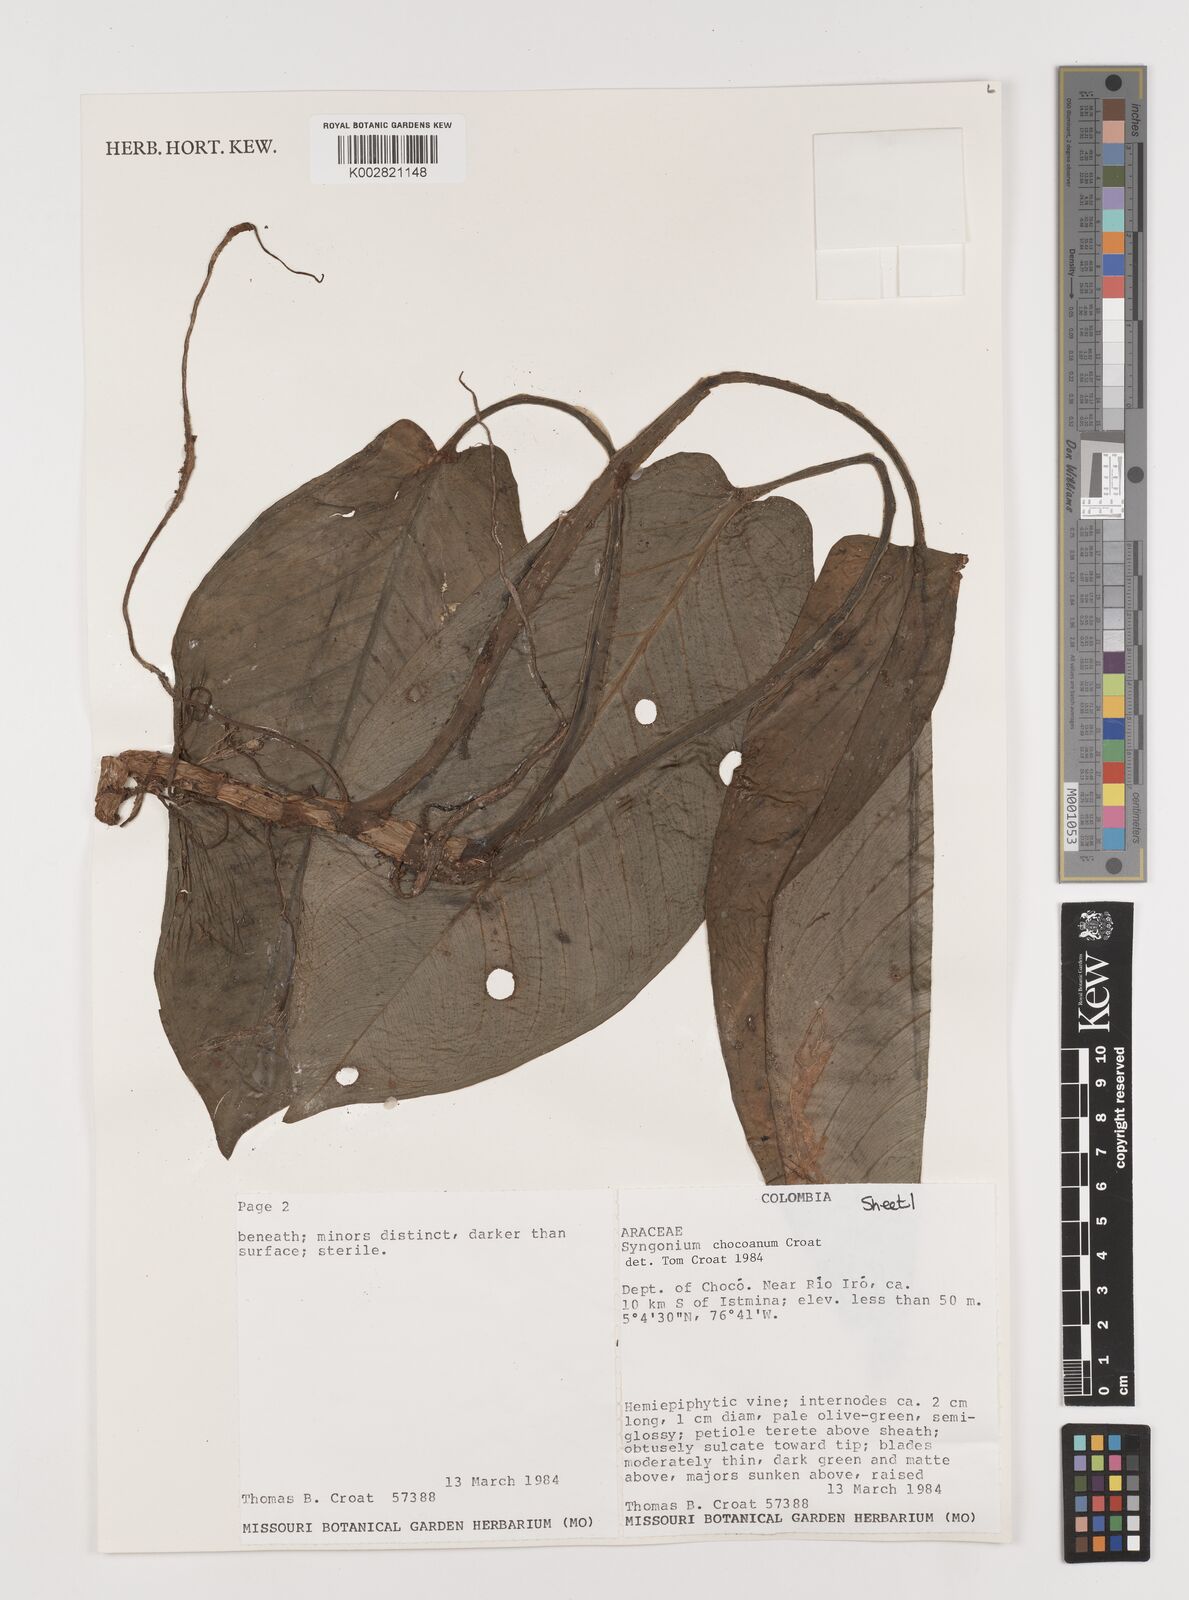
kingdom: Plantae
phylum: Tracheophyta
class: Liliopsida
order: Alismatales
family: Araceae
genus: Syngonium
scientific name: Syngonium chocoanum
